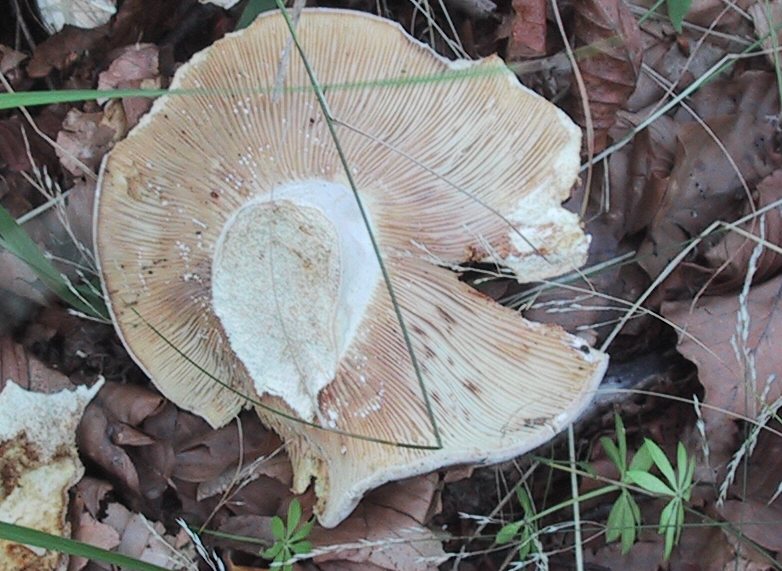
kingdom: Fungi
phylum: Basidiomycota
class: Agaricomycetes
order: Russulales
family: Russulaceae
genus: Russula
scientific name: Russula delica
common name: almindelig tragt-skørhat
